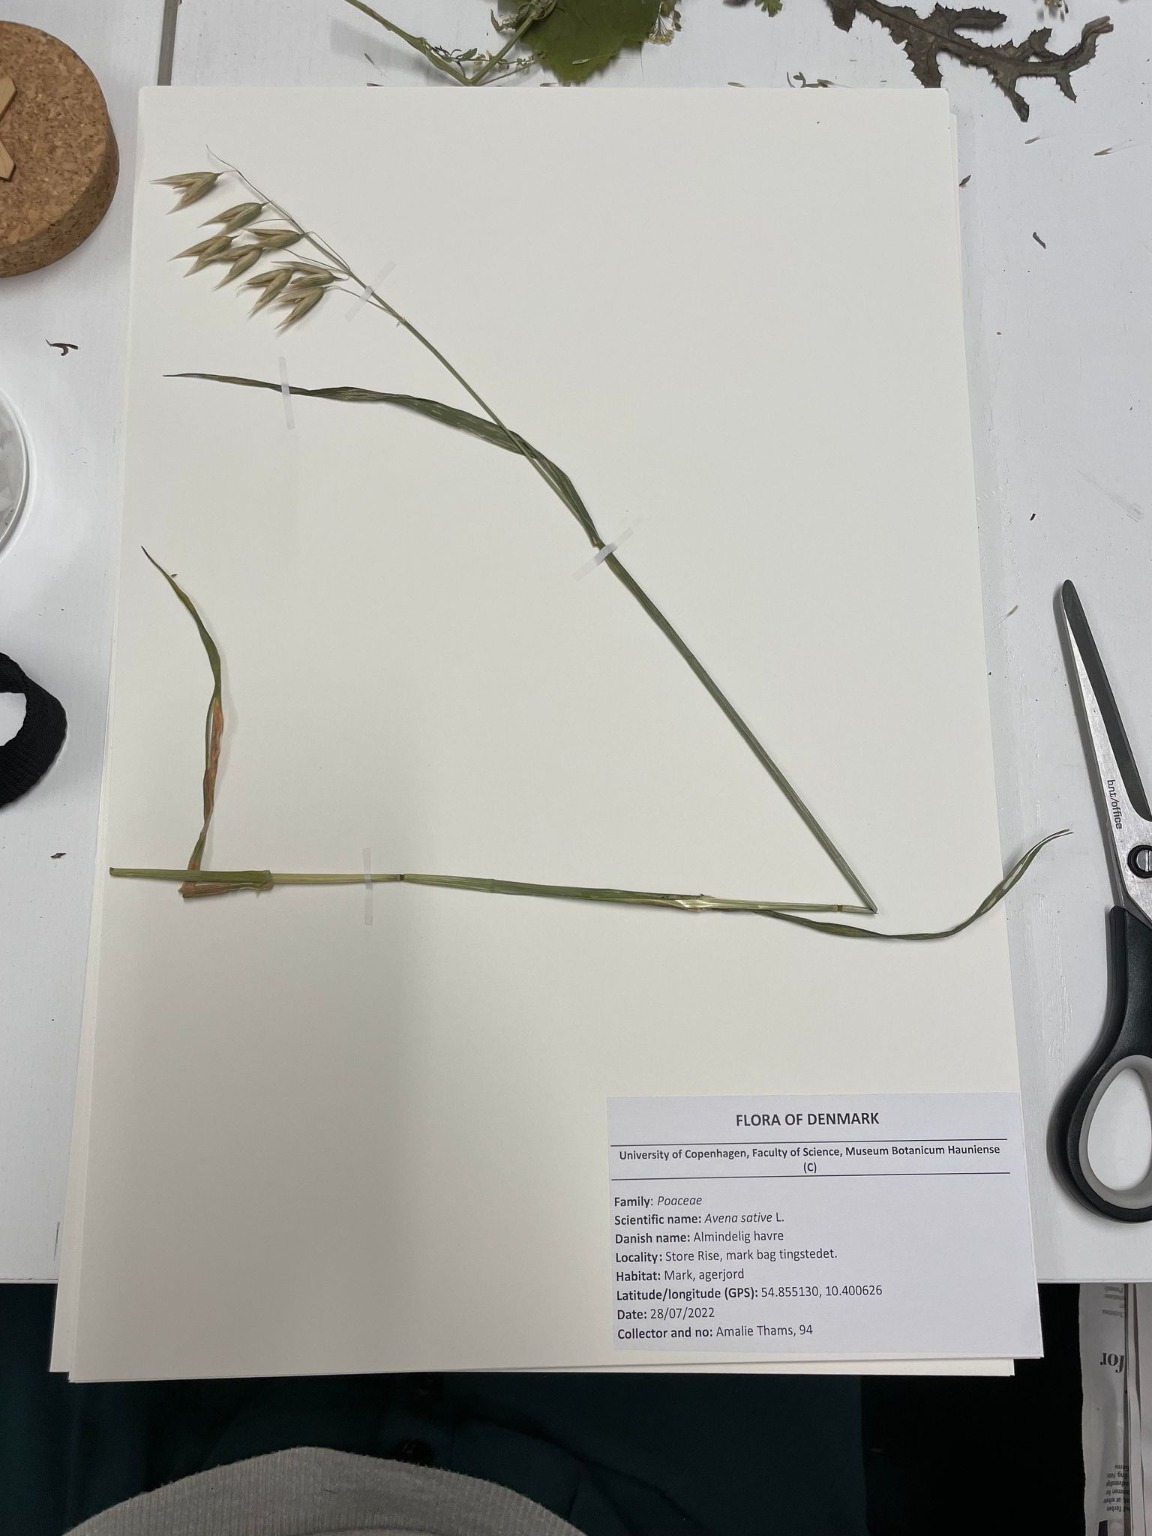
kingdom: Plantae
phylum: Tracheophyta
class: Liliopsida
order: Poales
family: Poaceae
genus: Avena
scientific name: Avena sativa
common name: Almindelig havre
